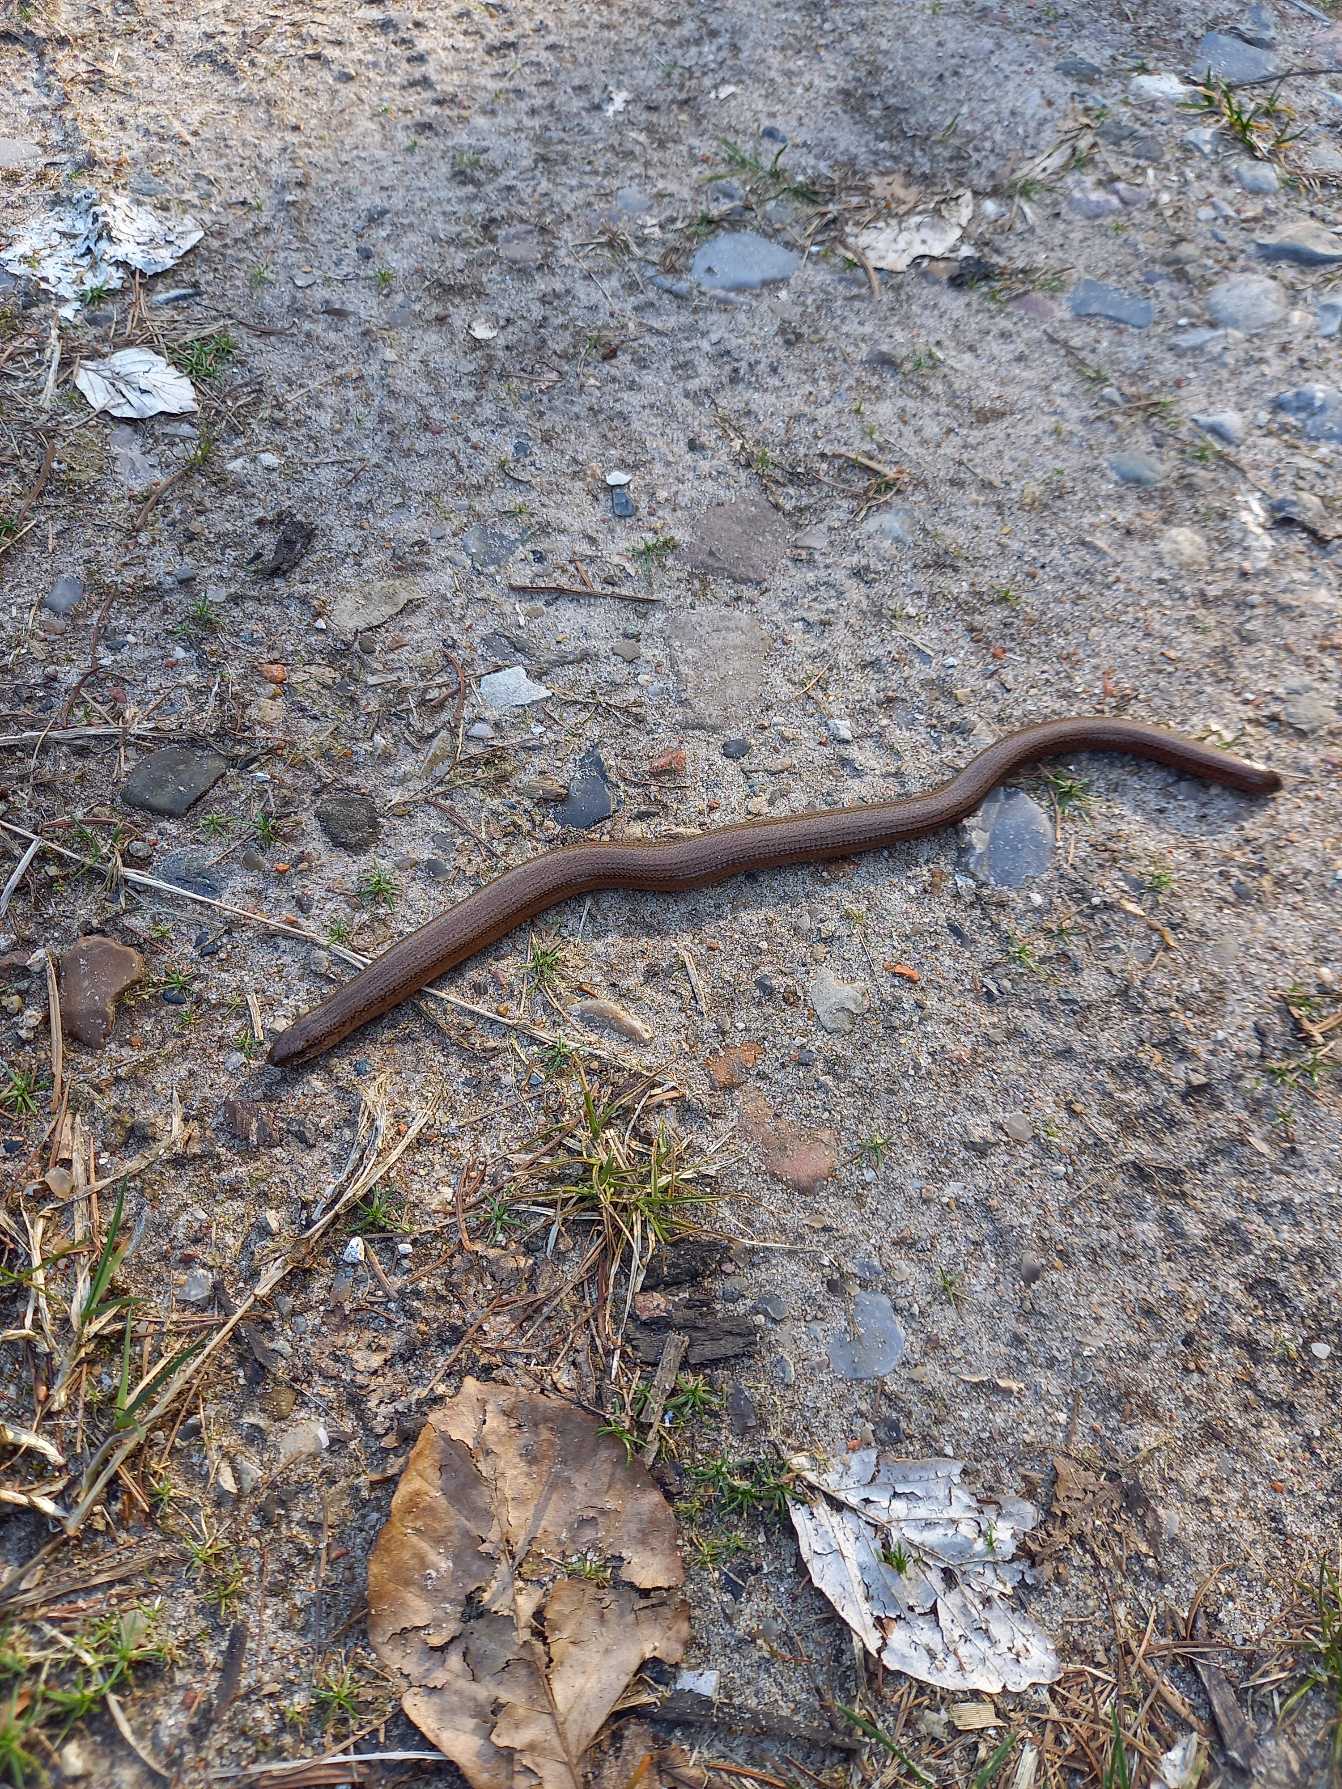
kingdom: Animalia
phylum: Chordata
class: Squamata
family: Anguidae
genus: Anguis
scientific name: Anguis fragilis
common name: Stålorm
